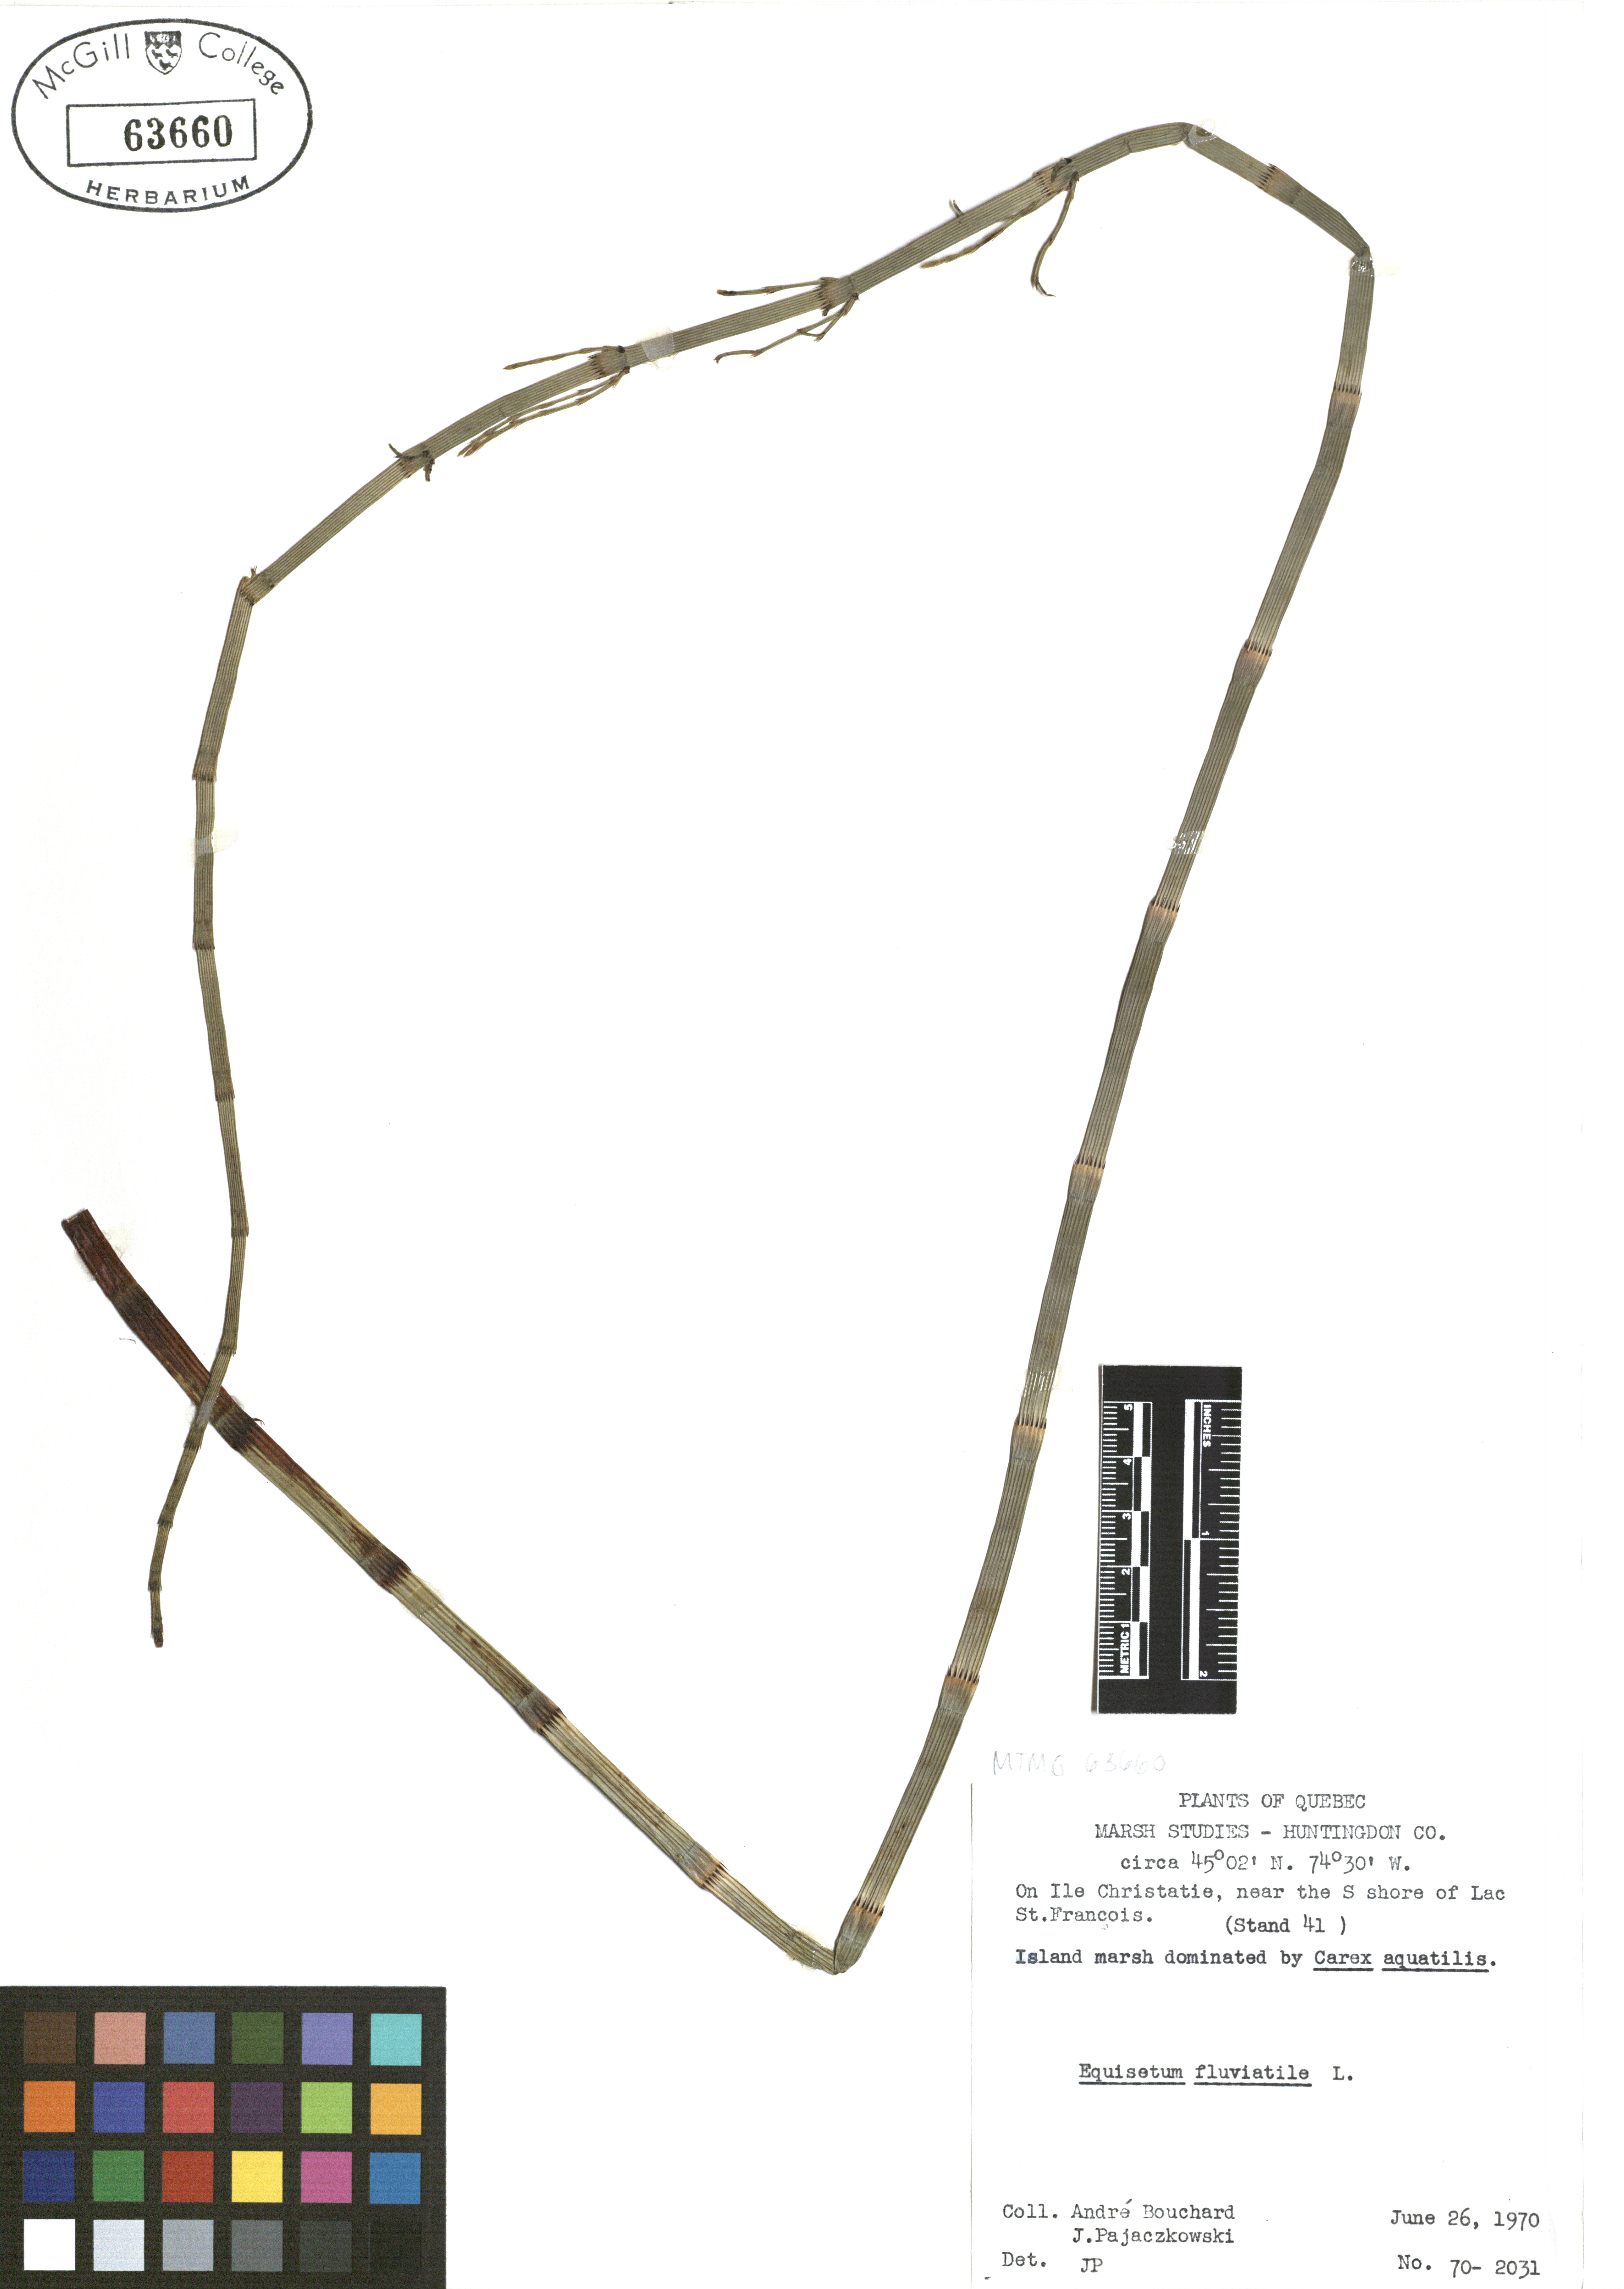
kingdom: Plantae
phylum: Tracheophyta
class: Polypodiopsida
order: Equisetales
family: Equisetaceae
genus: Equisetum
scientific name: Equisetum fluviatile
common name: Water horsetail
